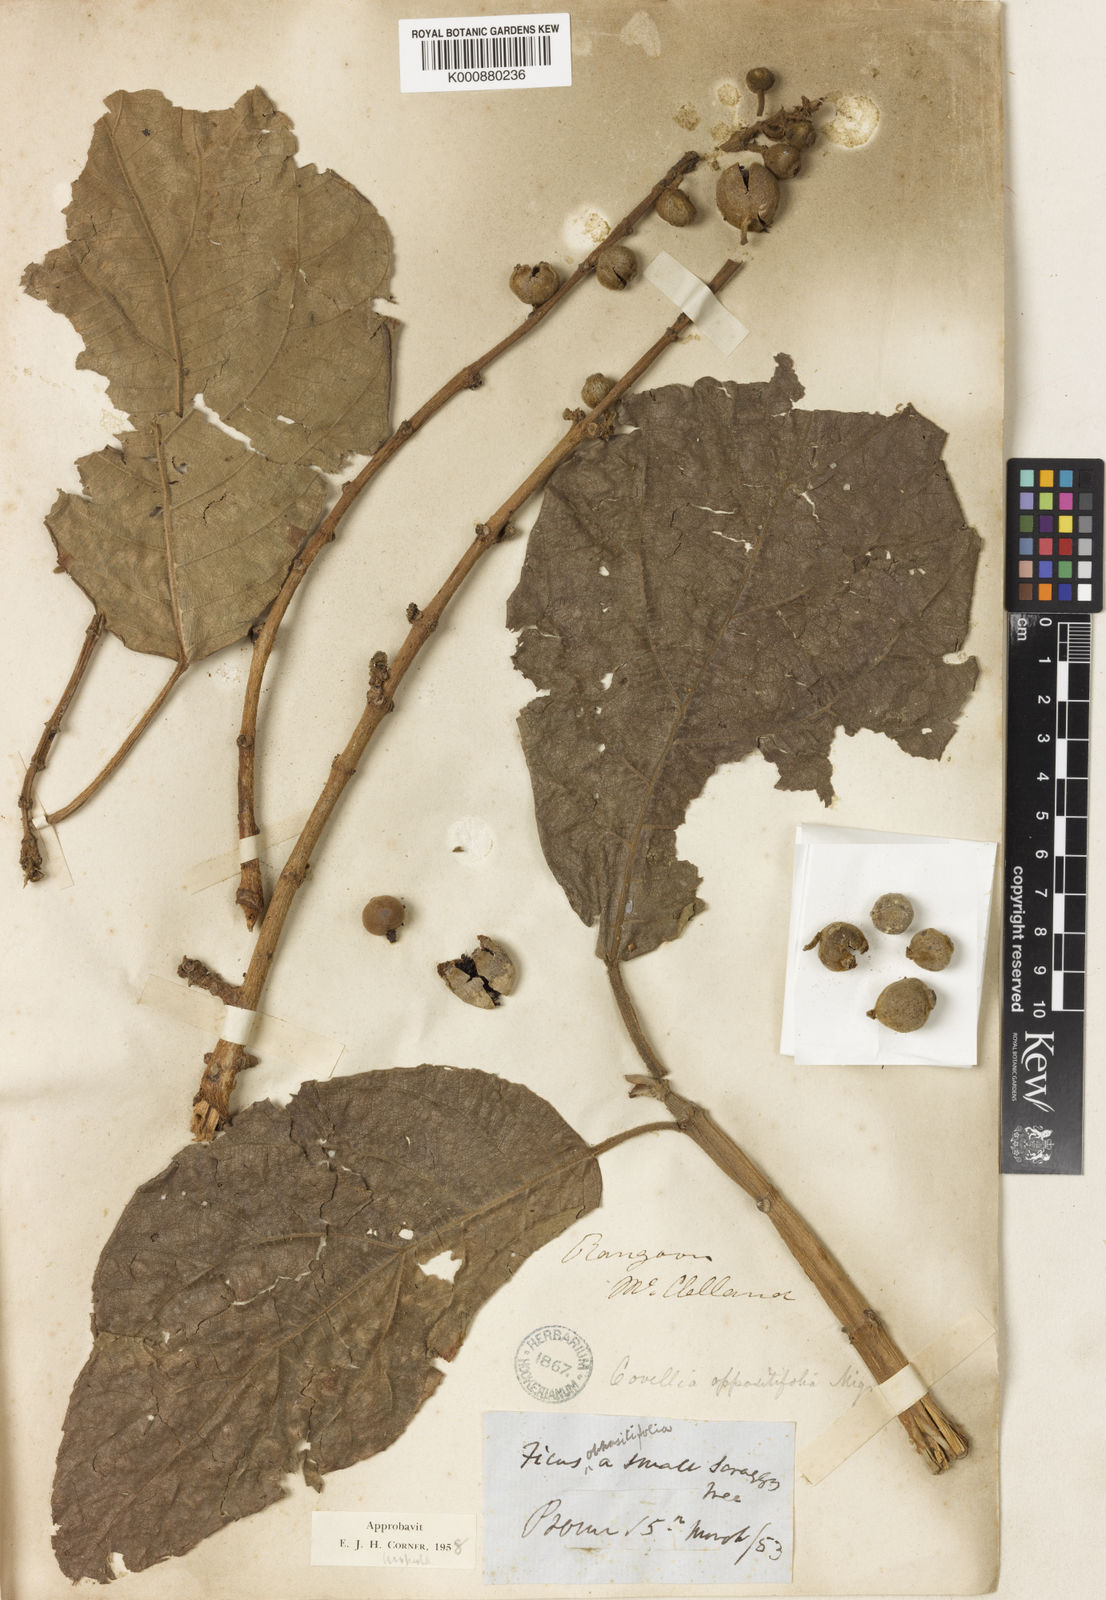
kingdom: Plantae
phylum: Tracheophyta
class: Magnoliopsida
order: Rosales
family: Moraceae
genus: Ficus
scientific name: Ficus hispida
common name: Hairy fig
